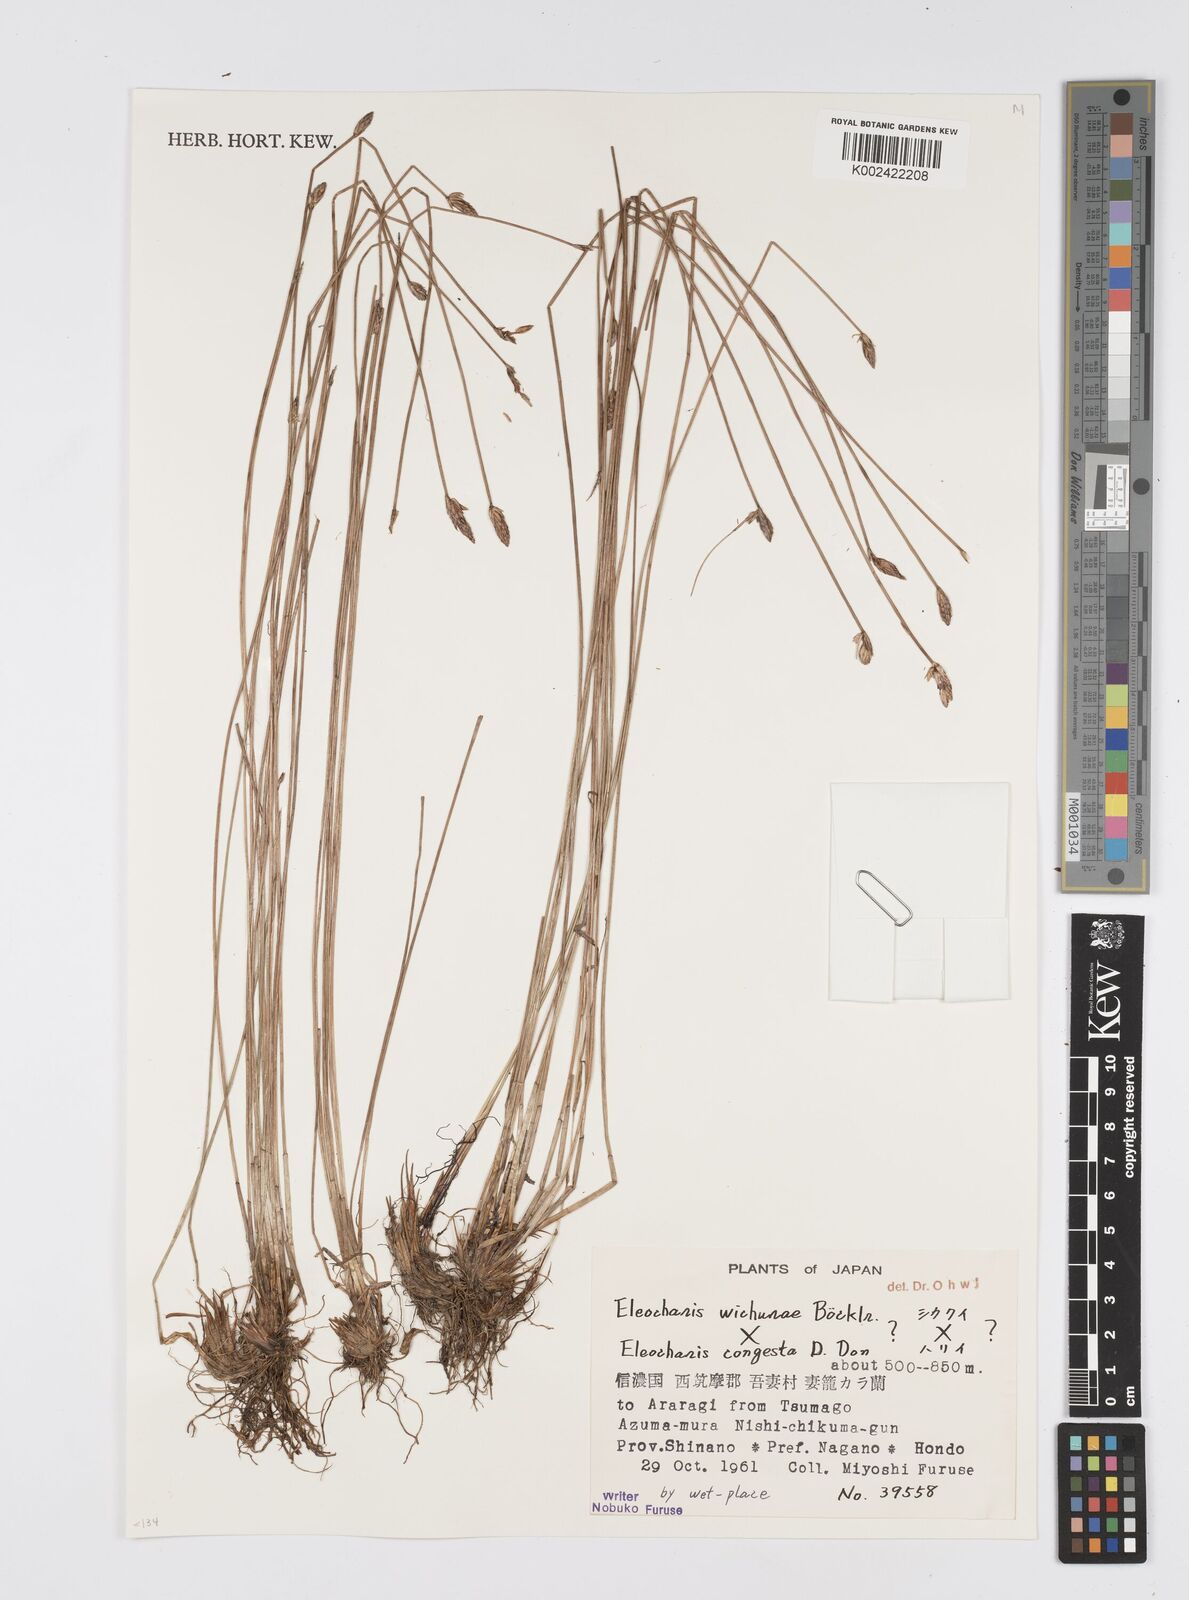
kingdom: Plantae
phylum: Tracheophyta
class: Liliopsida
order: Poales
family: Cyperaceae
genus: Eleocharis
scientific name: Eleocharis
